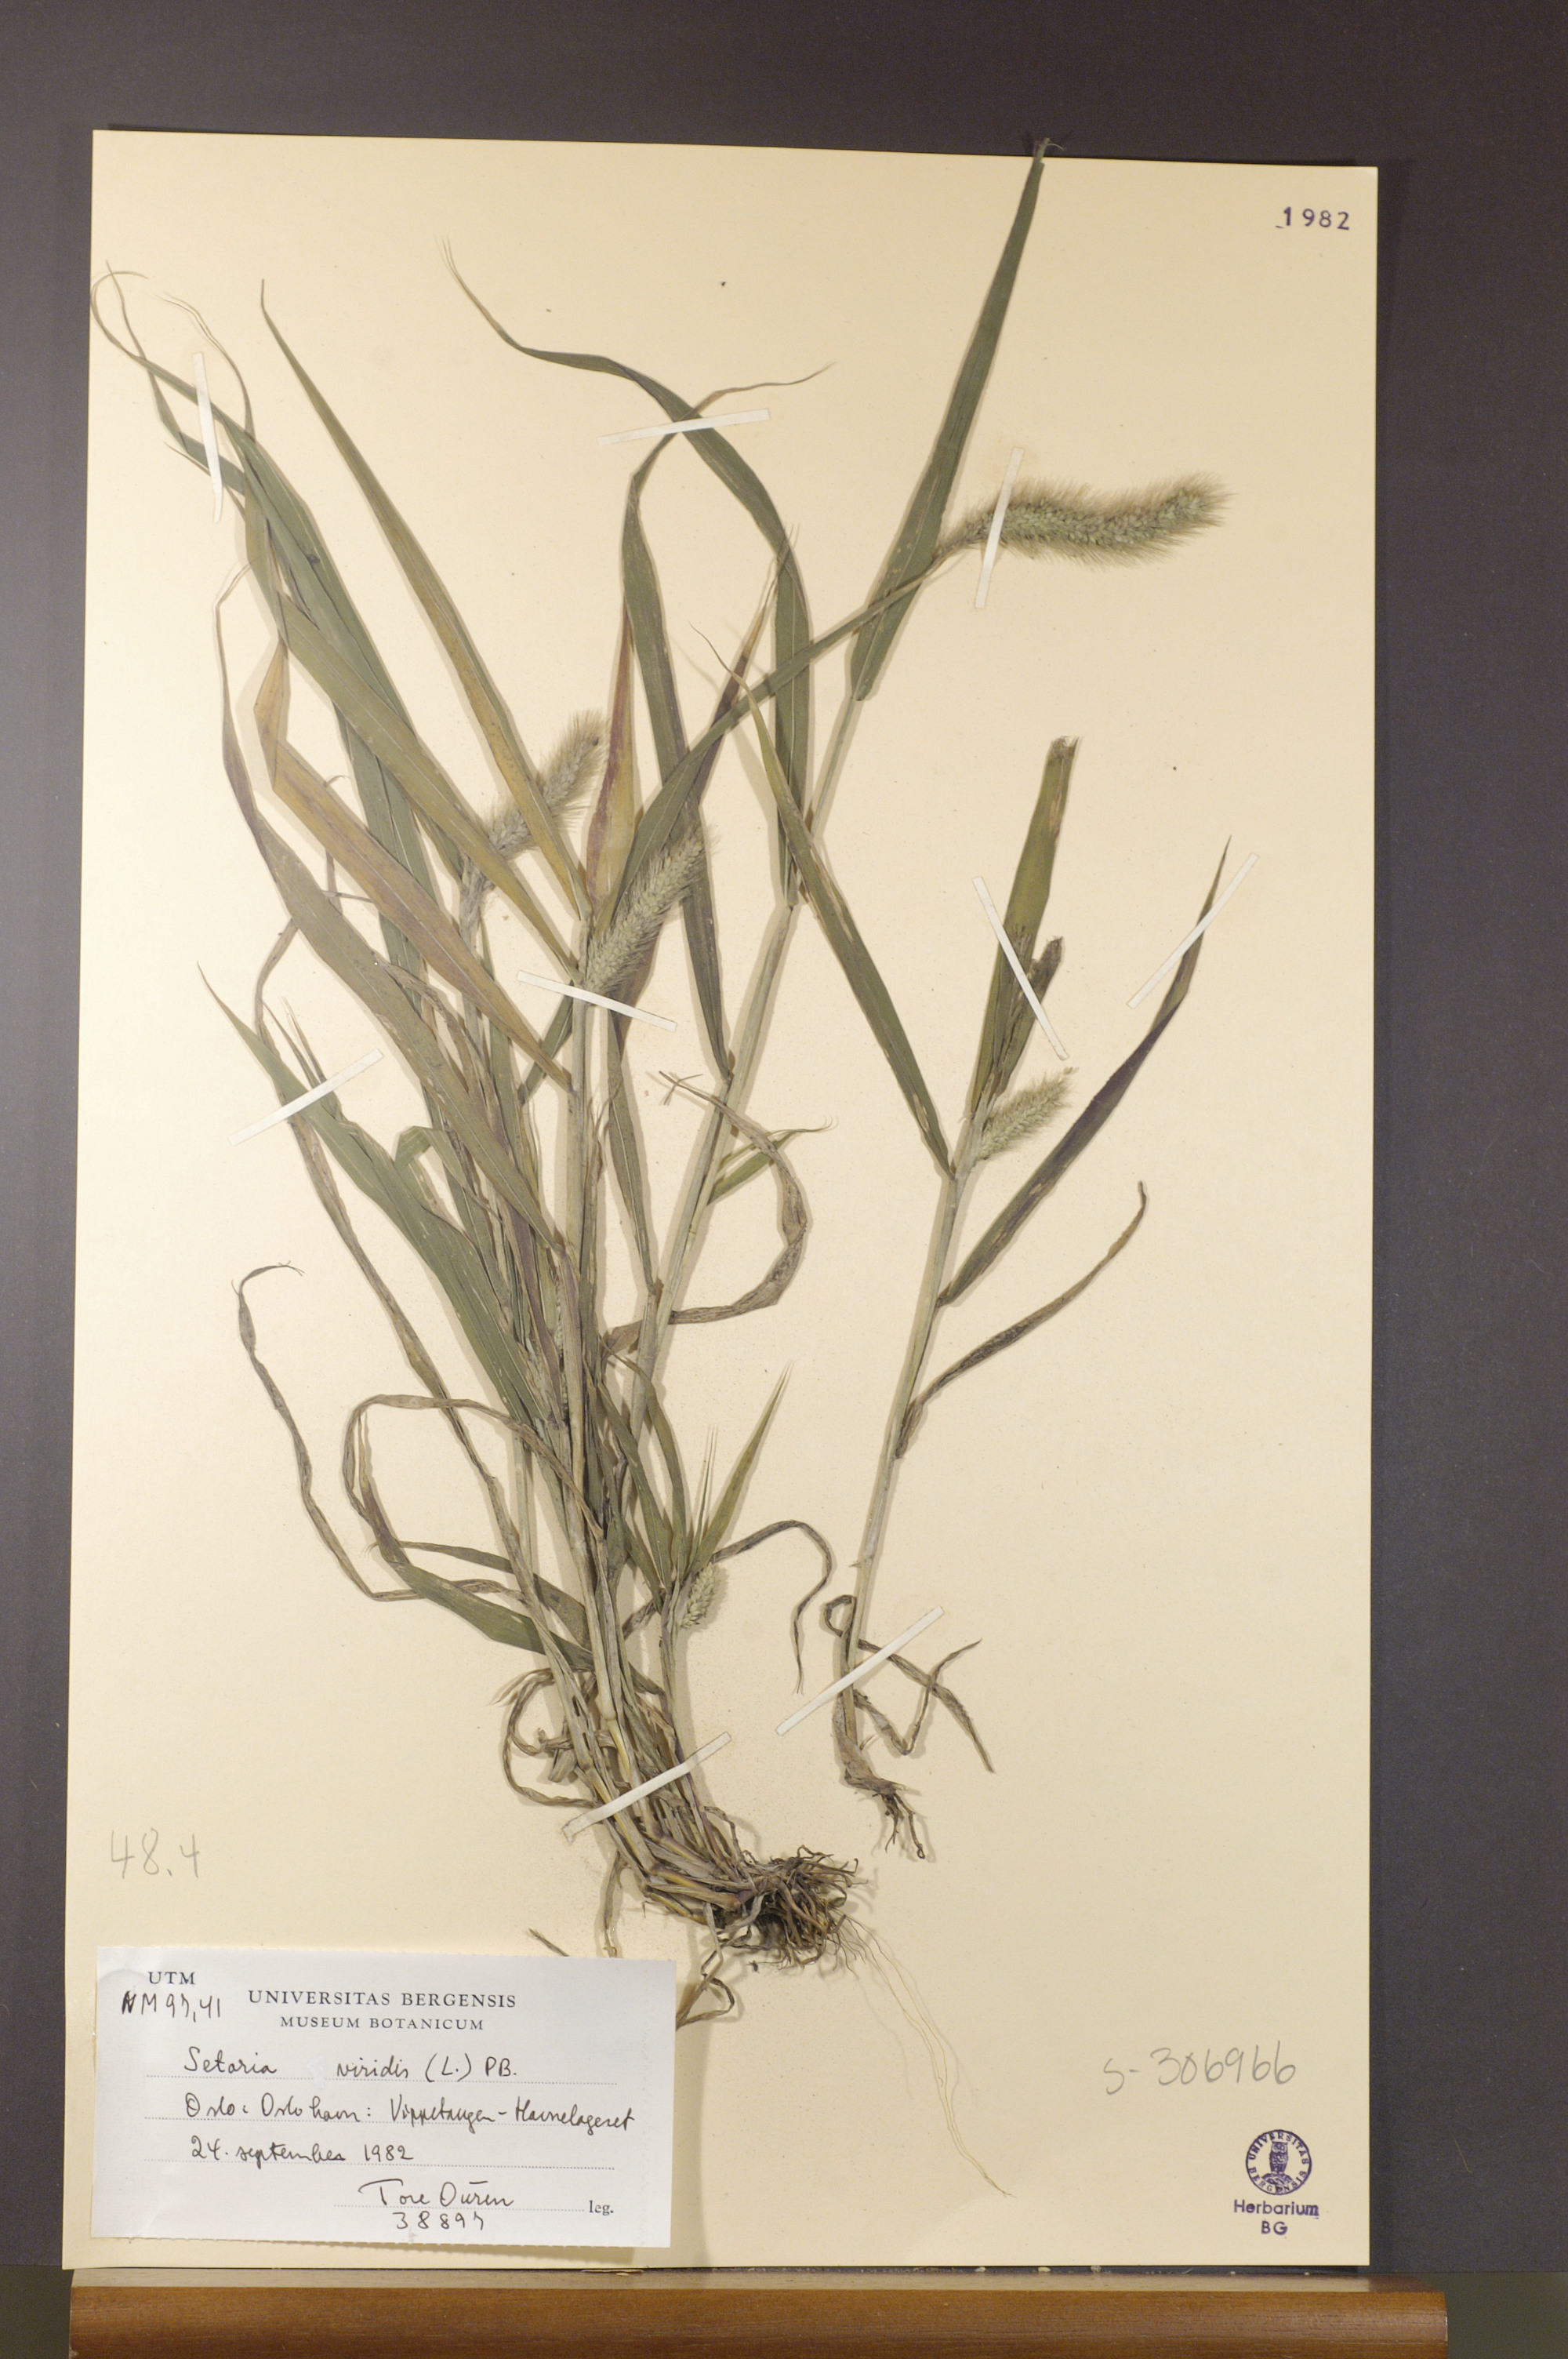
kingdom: Plantae
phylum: Tracheophyta
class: Liliopsida
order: Poales
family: Poaceae
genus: Setaria
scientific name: Setaria viridis
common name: Green bristlegrass
